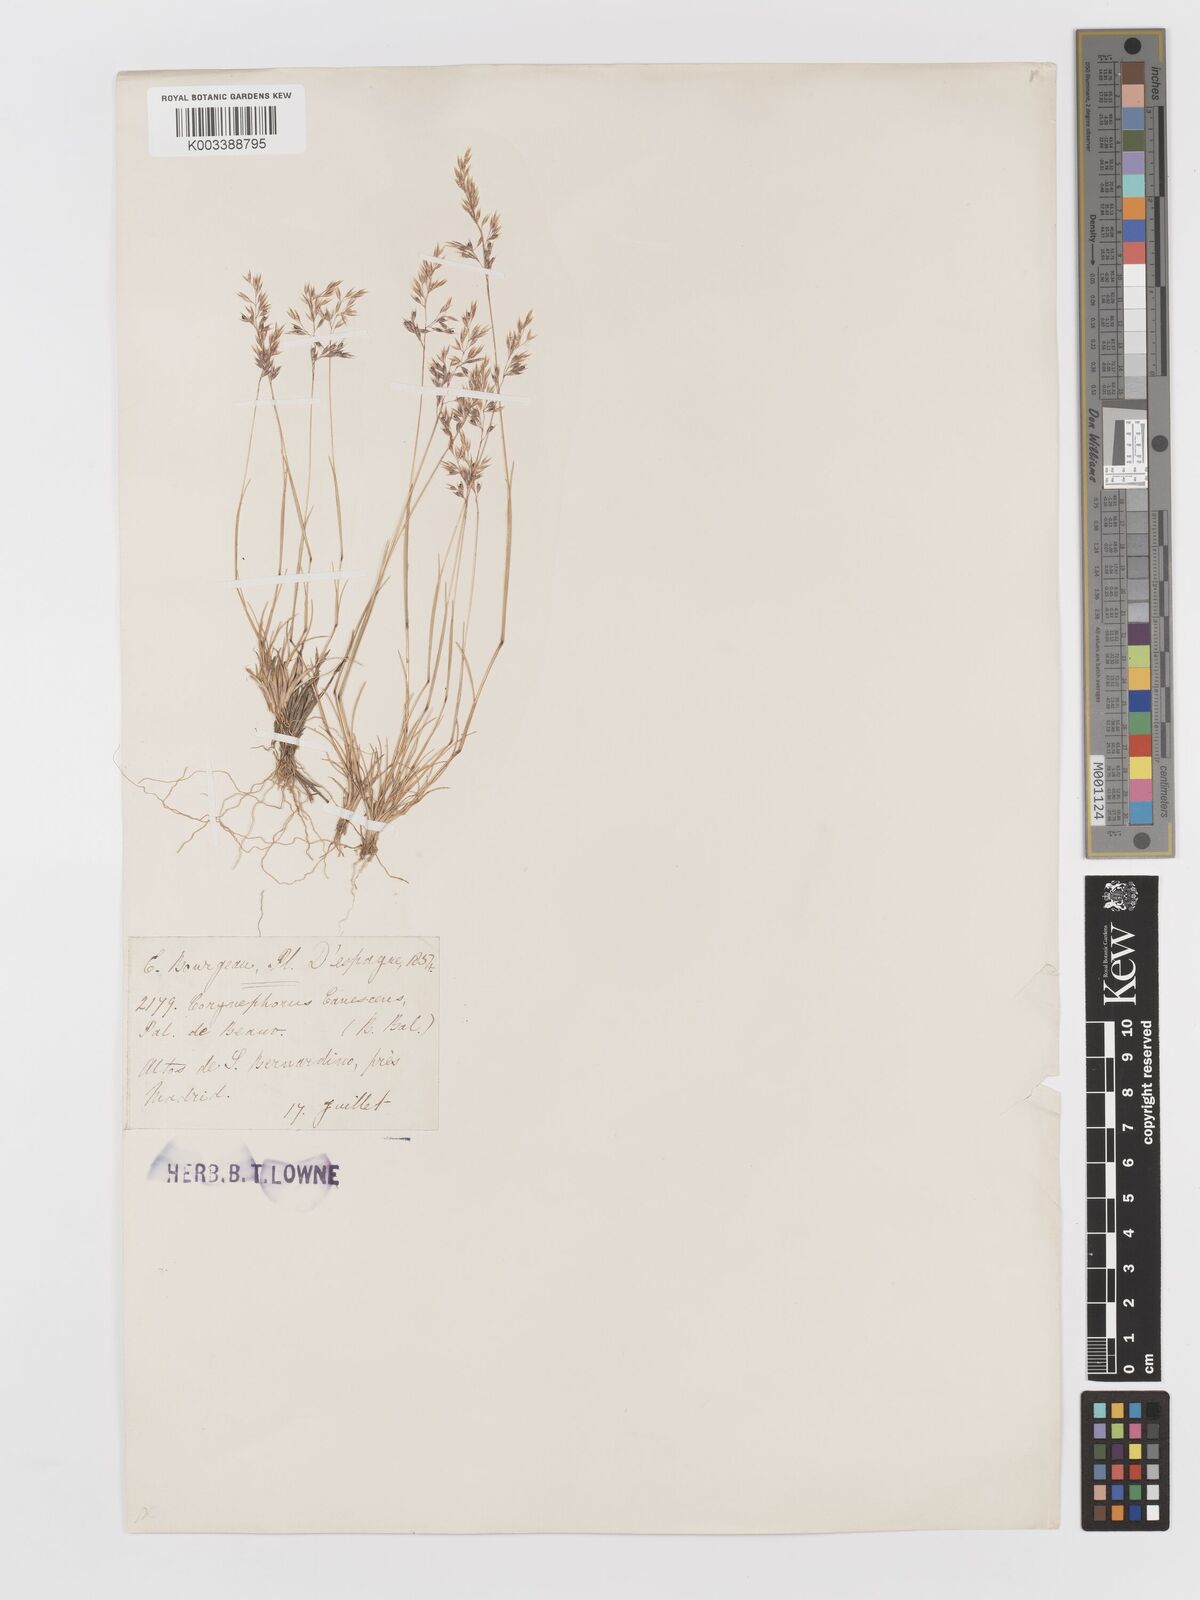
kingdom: Plantae
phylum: Tracheophyta
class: Liliopsida
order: Poales
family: Poaceae
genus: Corynephorus
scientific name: Corynephorus canescens
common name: Grey hair-grass
